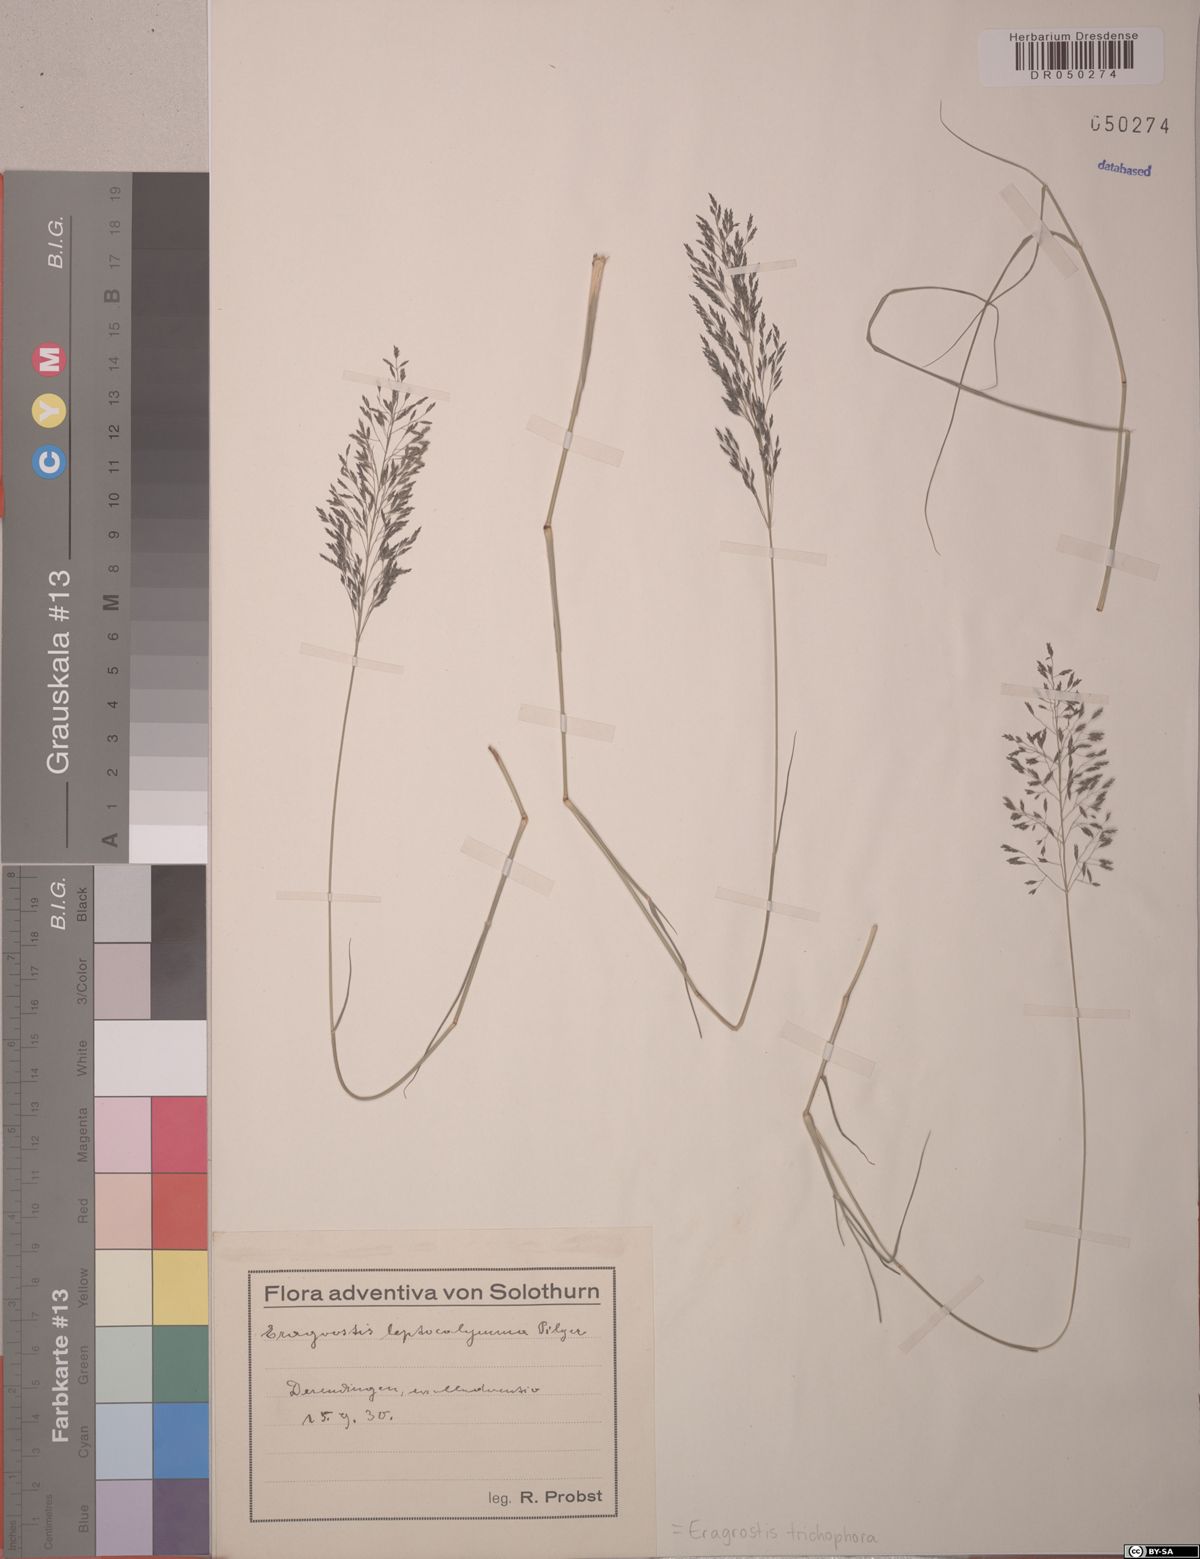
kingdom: Plantae
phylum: Tracheophyta
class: Liliopsida
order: Poales
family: Poaceae
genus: Eragrostis
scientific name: Eragrostis cylindriflora
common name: Cylinderflower lovegrass
